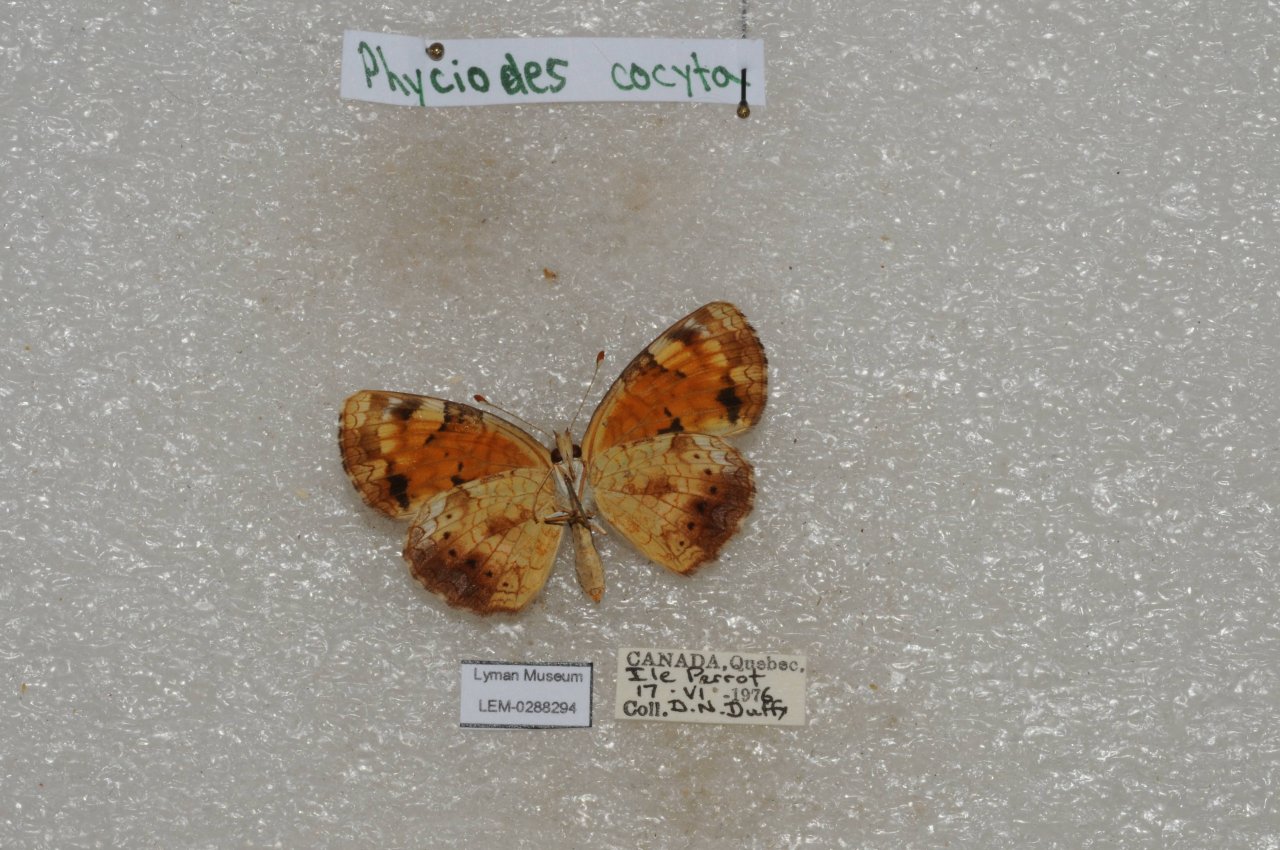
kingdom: Animalia
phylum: Arthropoda
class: Insecta
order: Lepidoptera
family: Nymphalidae
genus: Phyciodes
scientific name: Phyciodes tharos
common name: Northern Crescent
